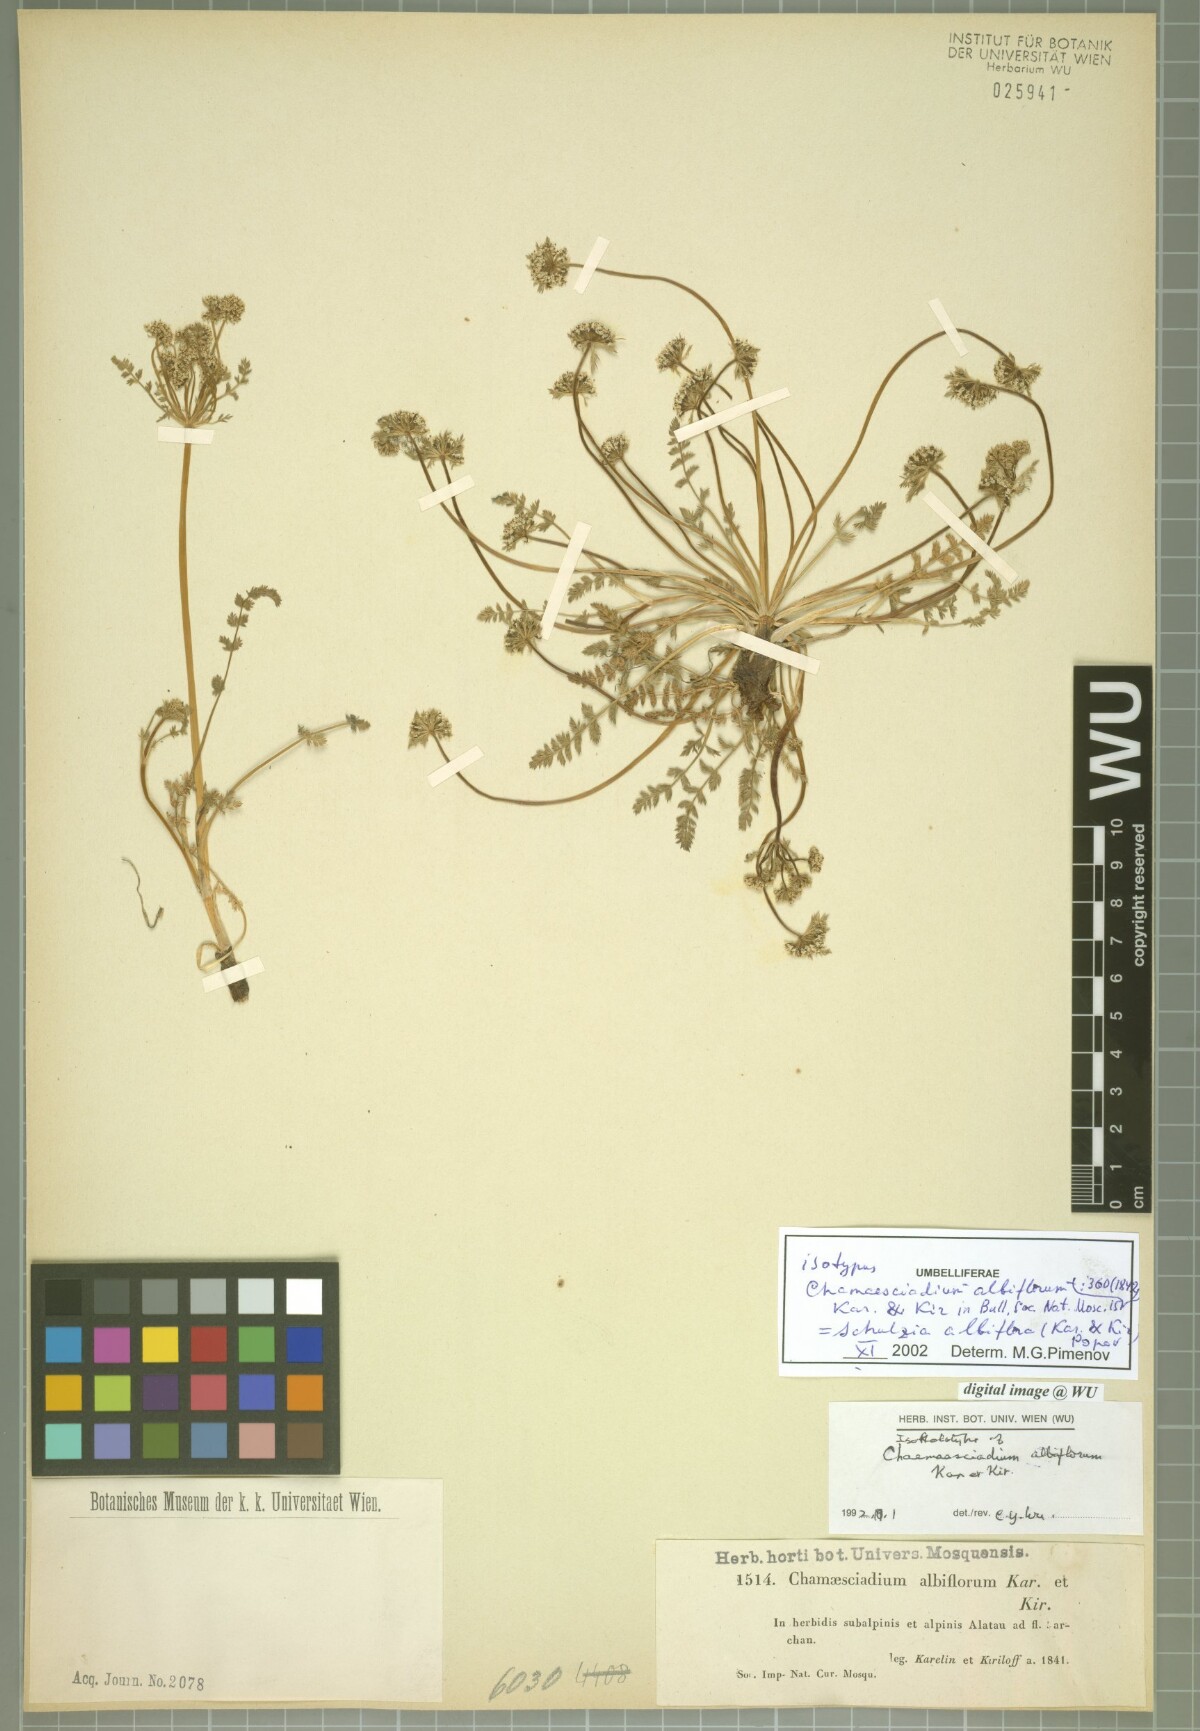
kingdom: Plantae
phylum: Tracheophyta
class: Magnoliopsida
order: Apiales
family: Apiaceae
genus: Schulzia
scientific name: Schulzia albiflora
